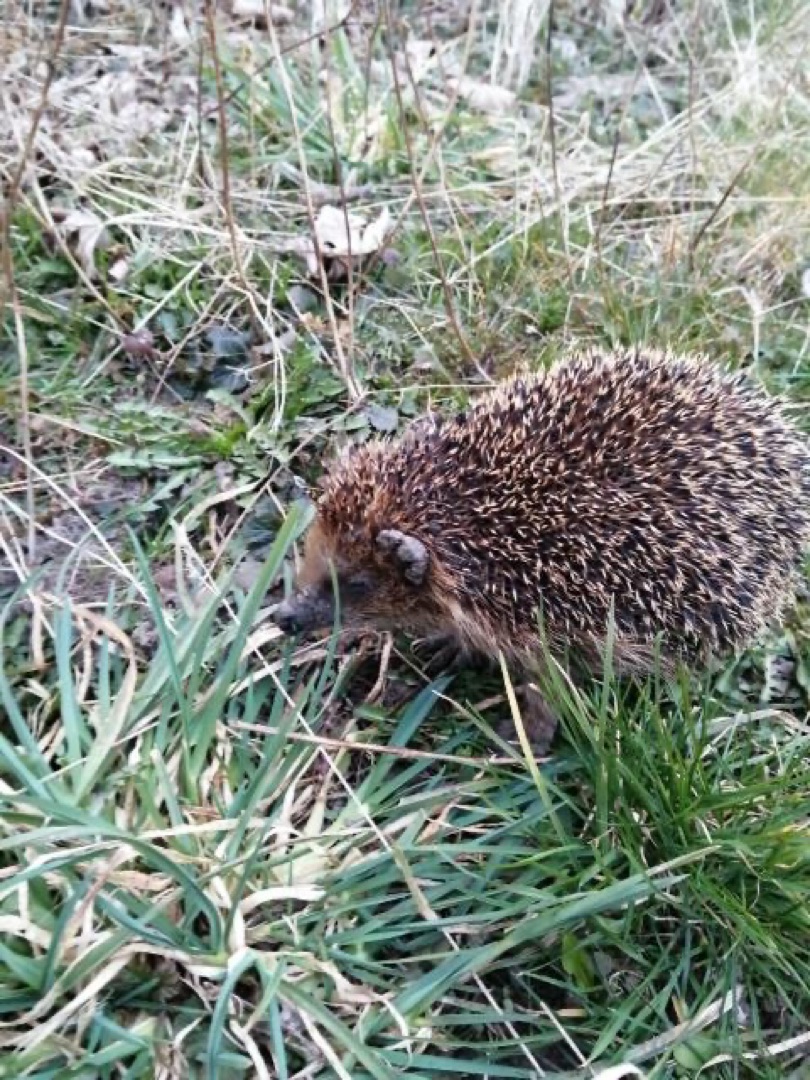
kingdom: Animalia
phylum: Chordata
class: Mammalia
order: Erinaceomorpha
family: Erinaceidae
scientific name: Erinaceidae
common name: Pindsvin
